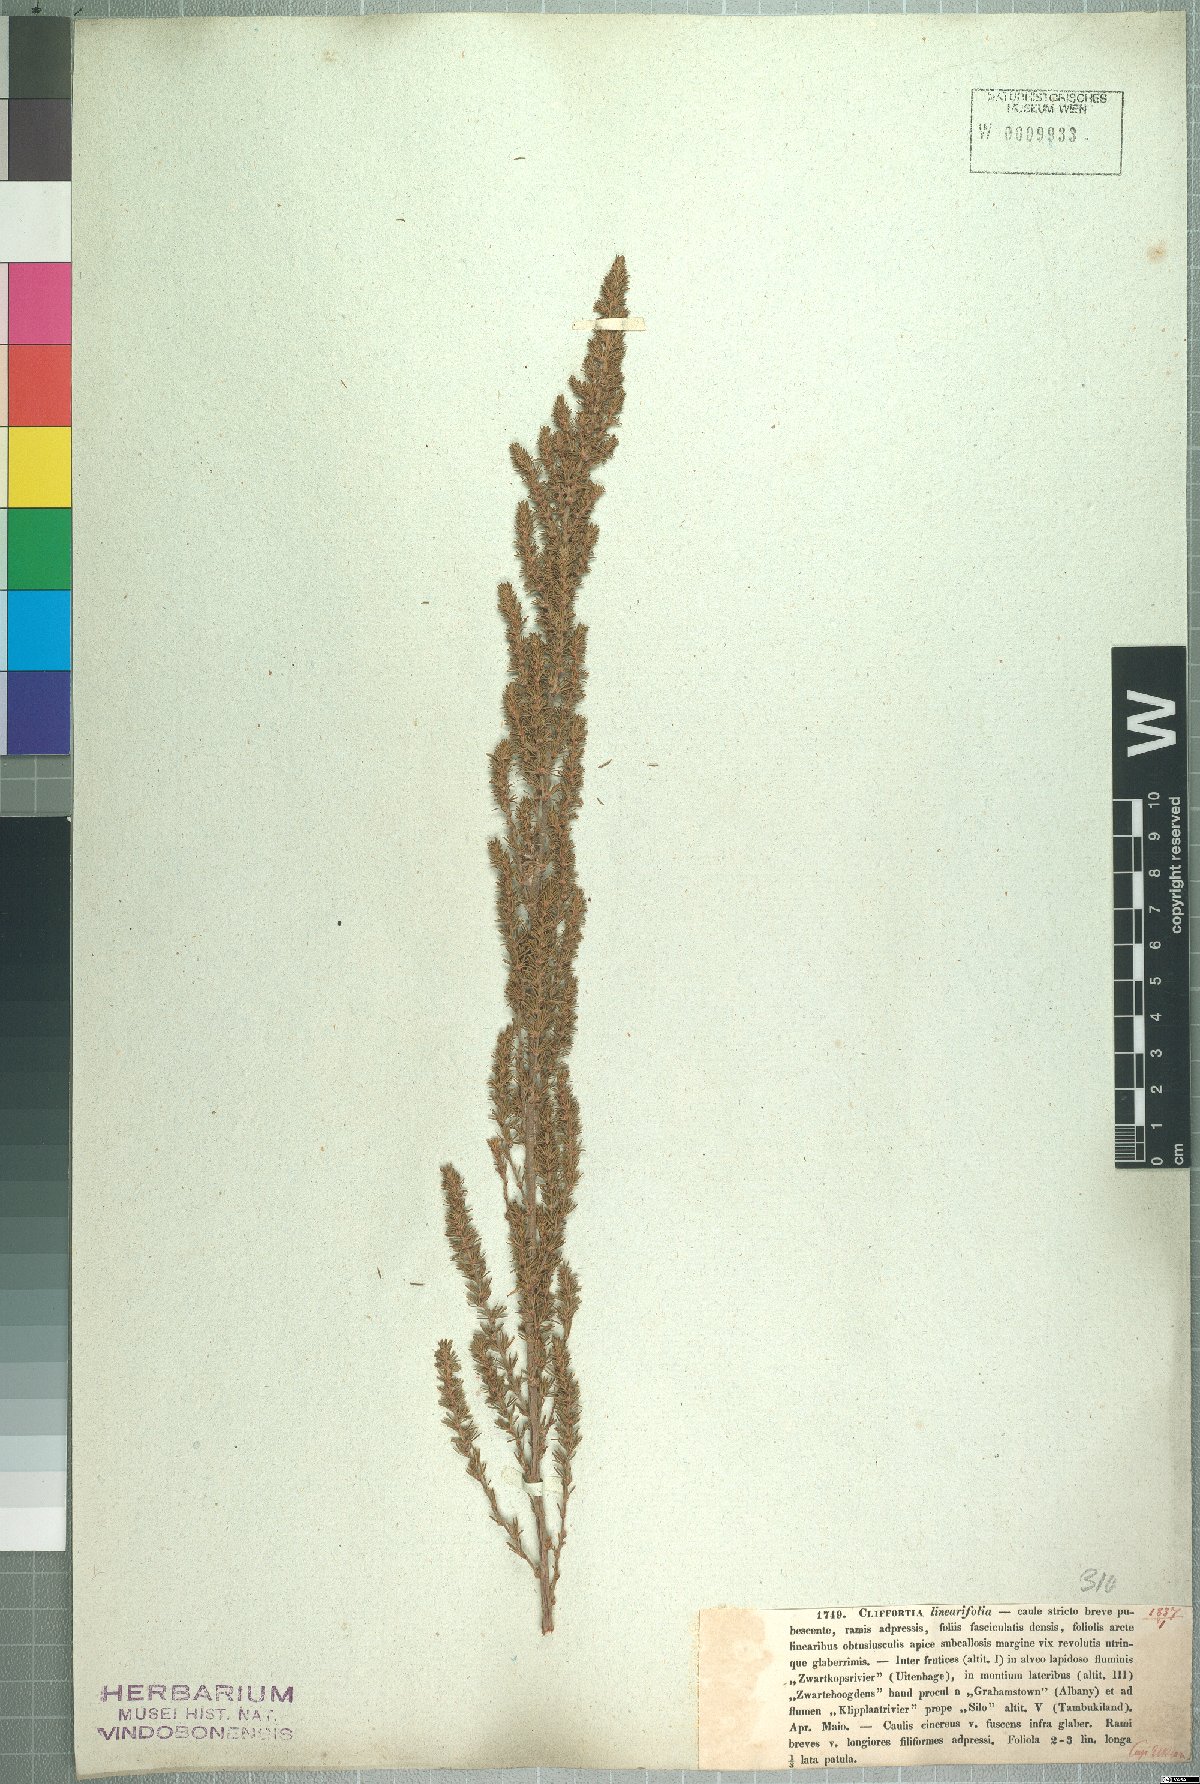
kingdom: Plantae
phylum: Tracheophyta
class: Magnoliopsida
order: Rosales
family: Rosaceae
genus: Cliffortia
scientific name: Cliffortia linearifolia
